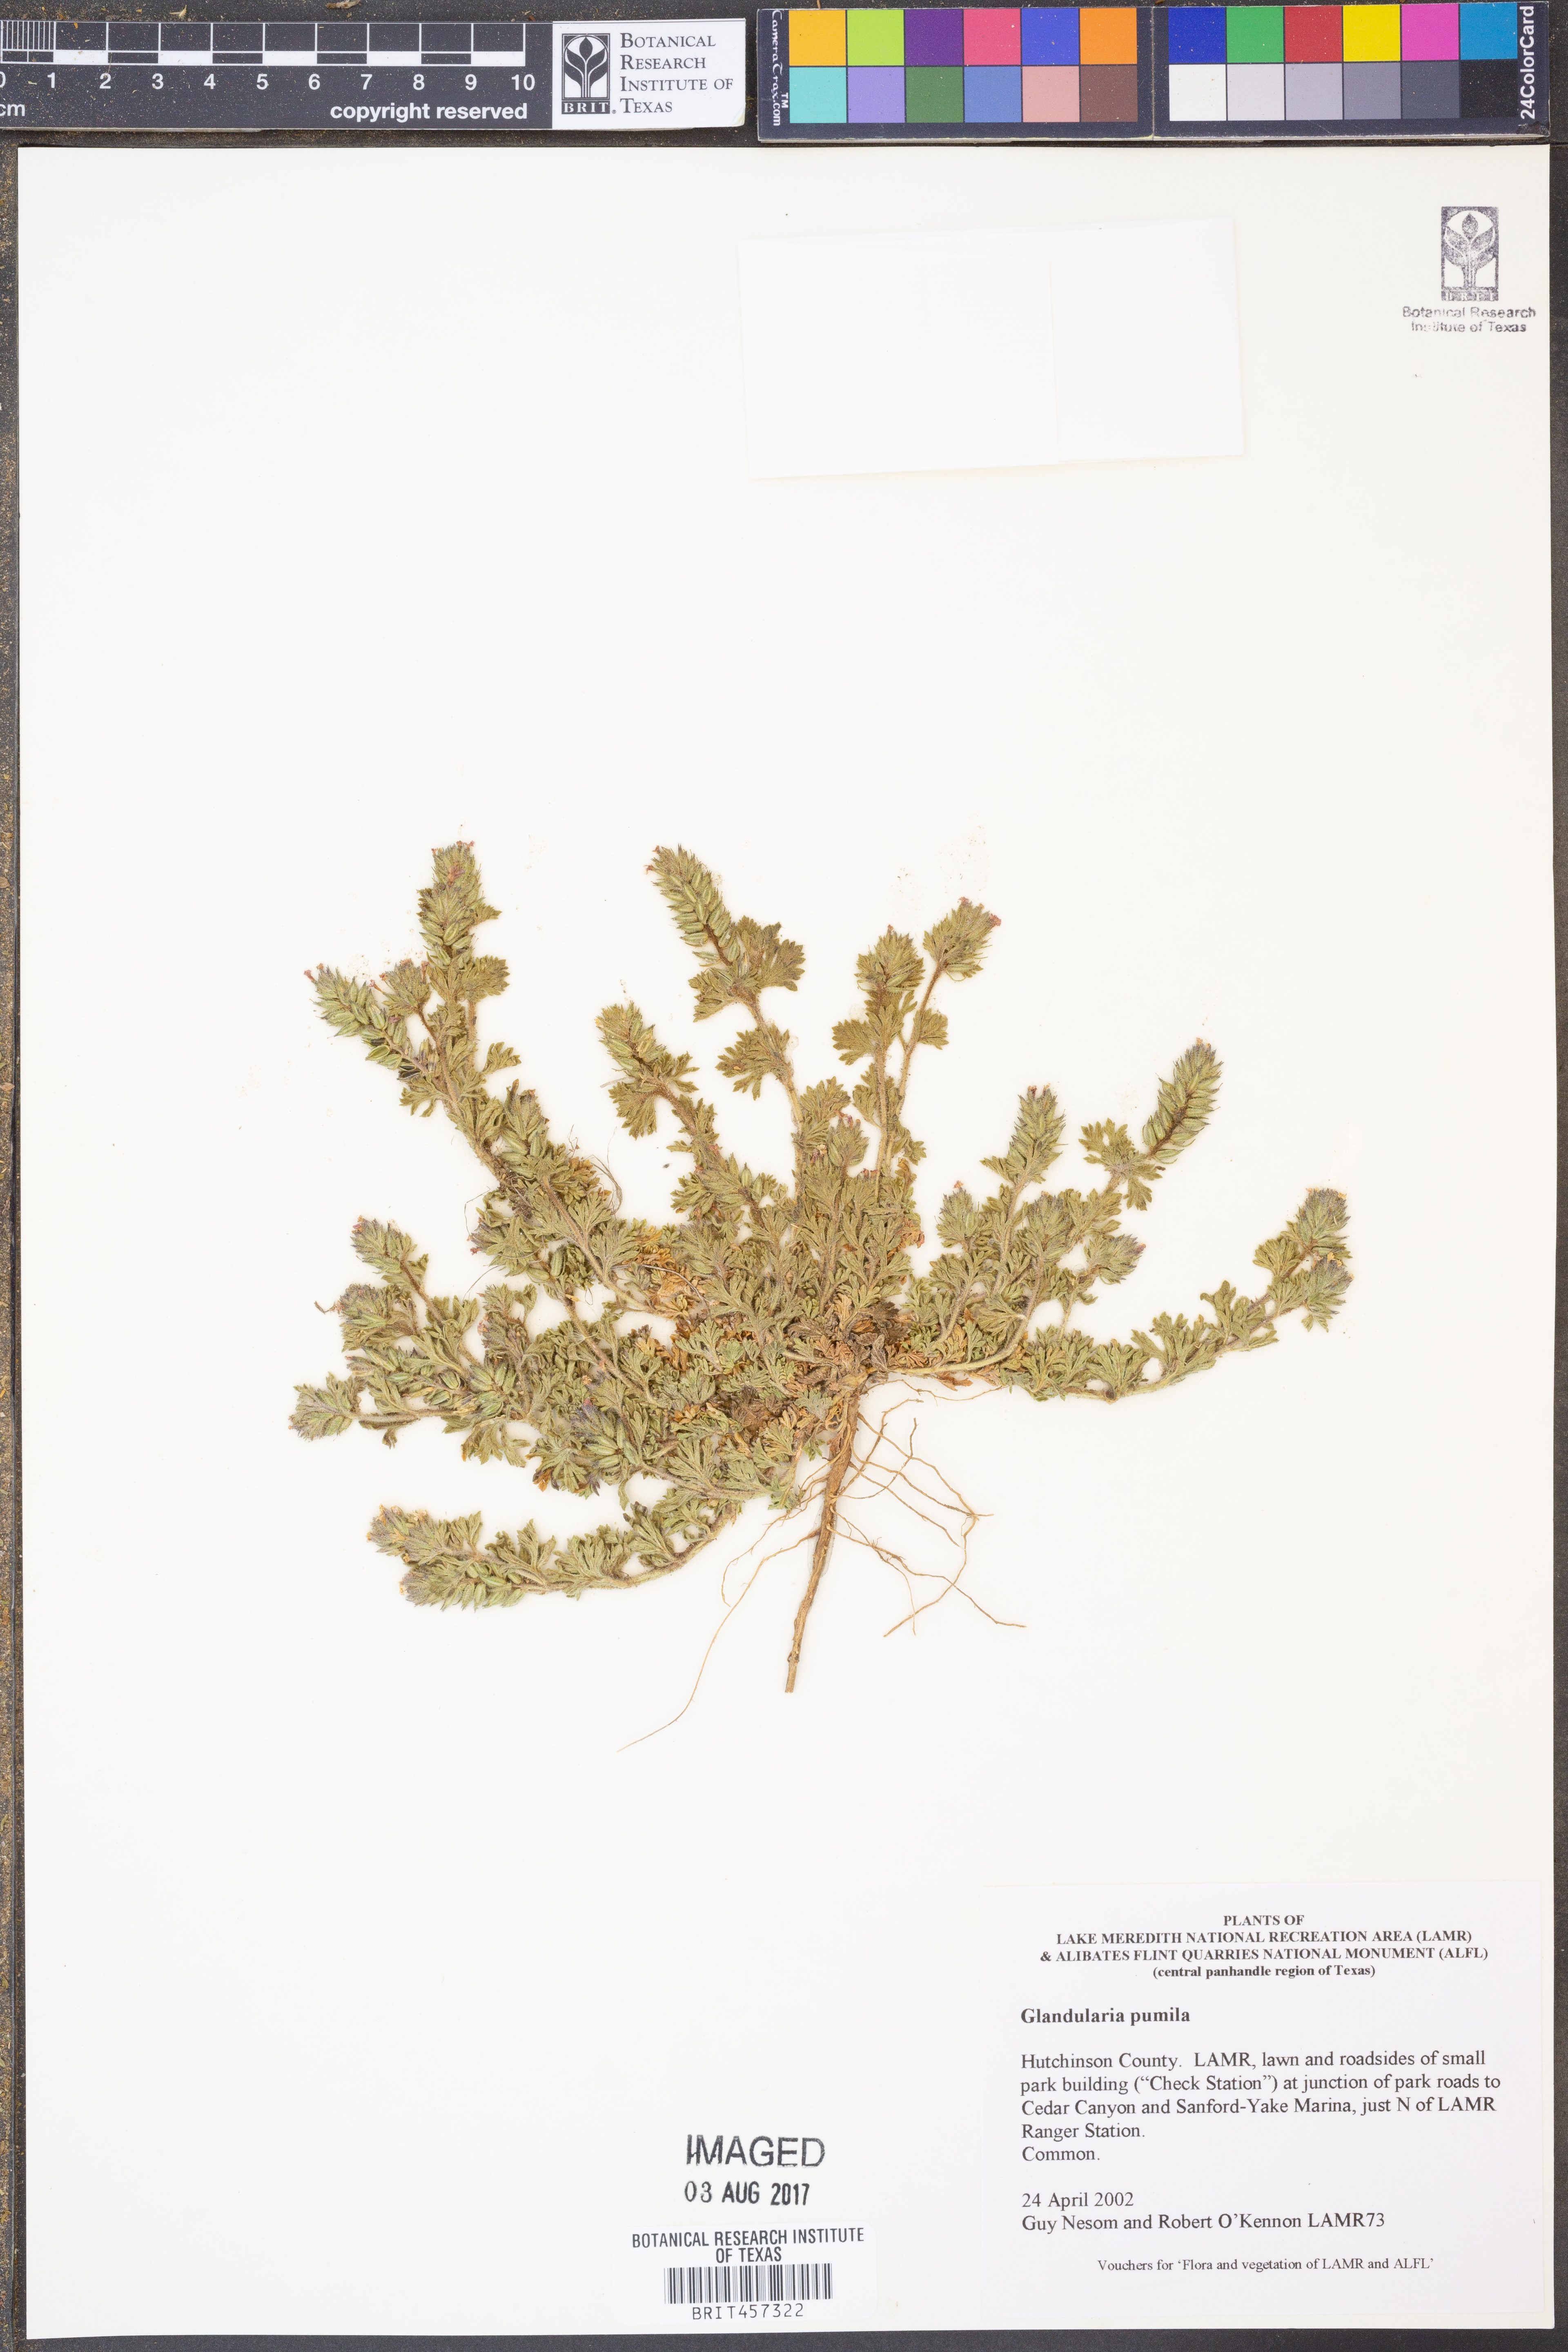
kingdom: Plantae
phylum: Tracheophyta
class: Magnoliopsida
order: Lamiales
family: Verbenaceae
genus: Verbena
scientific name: Verbena pumila
